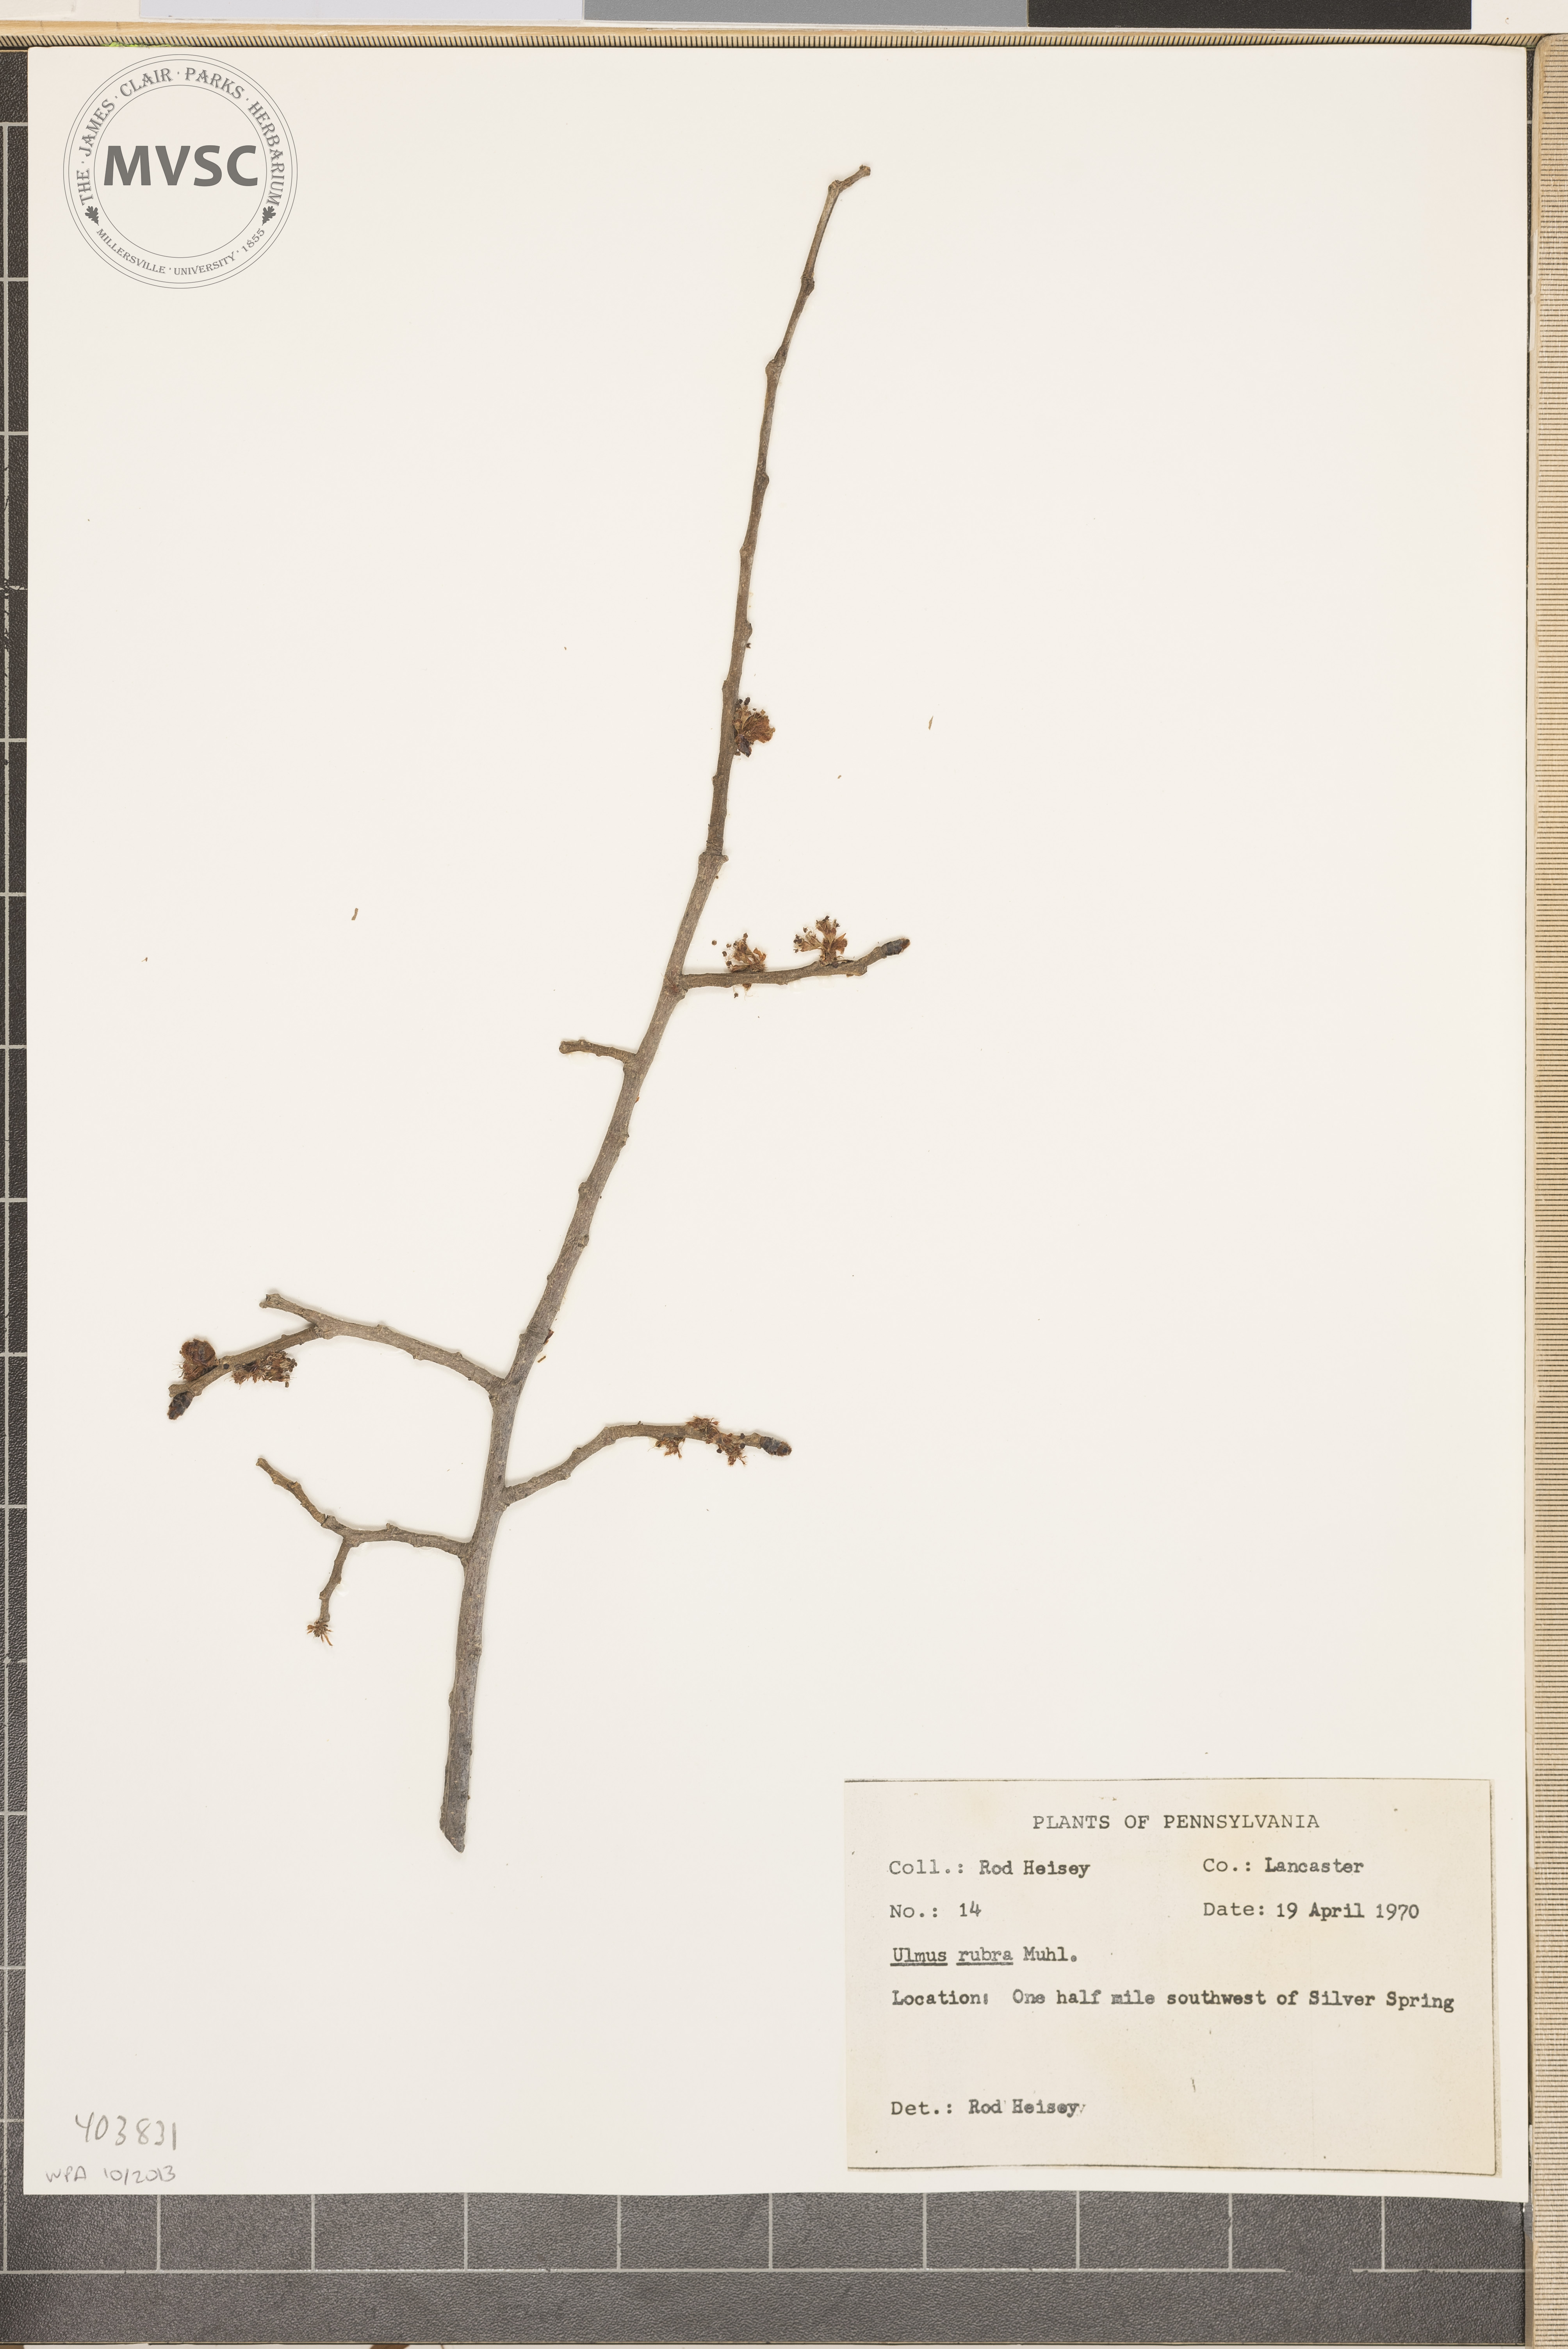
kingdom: Plantae
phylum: Tracheophyta
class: Magnoliopsida
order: Rosales
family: Ulmaceae
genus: Ulmus
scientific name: Ulmus rubra
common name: Slippery elm
